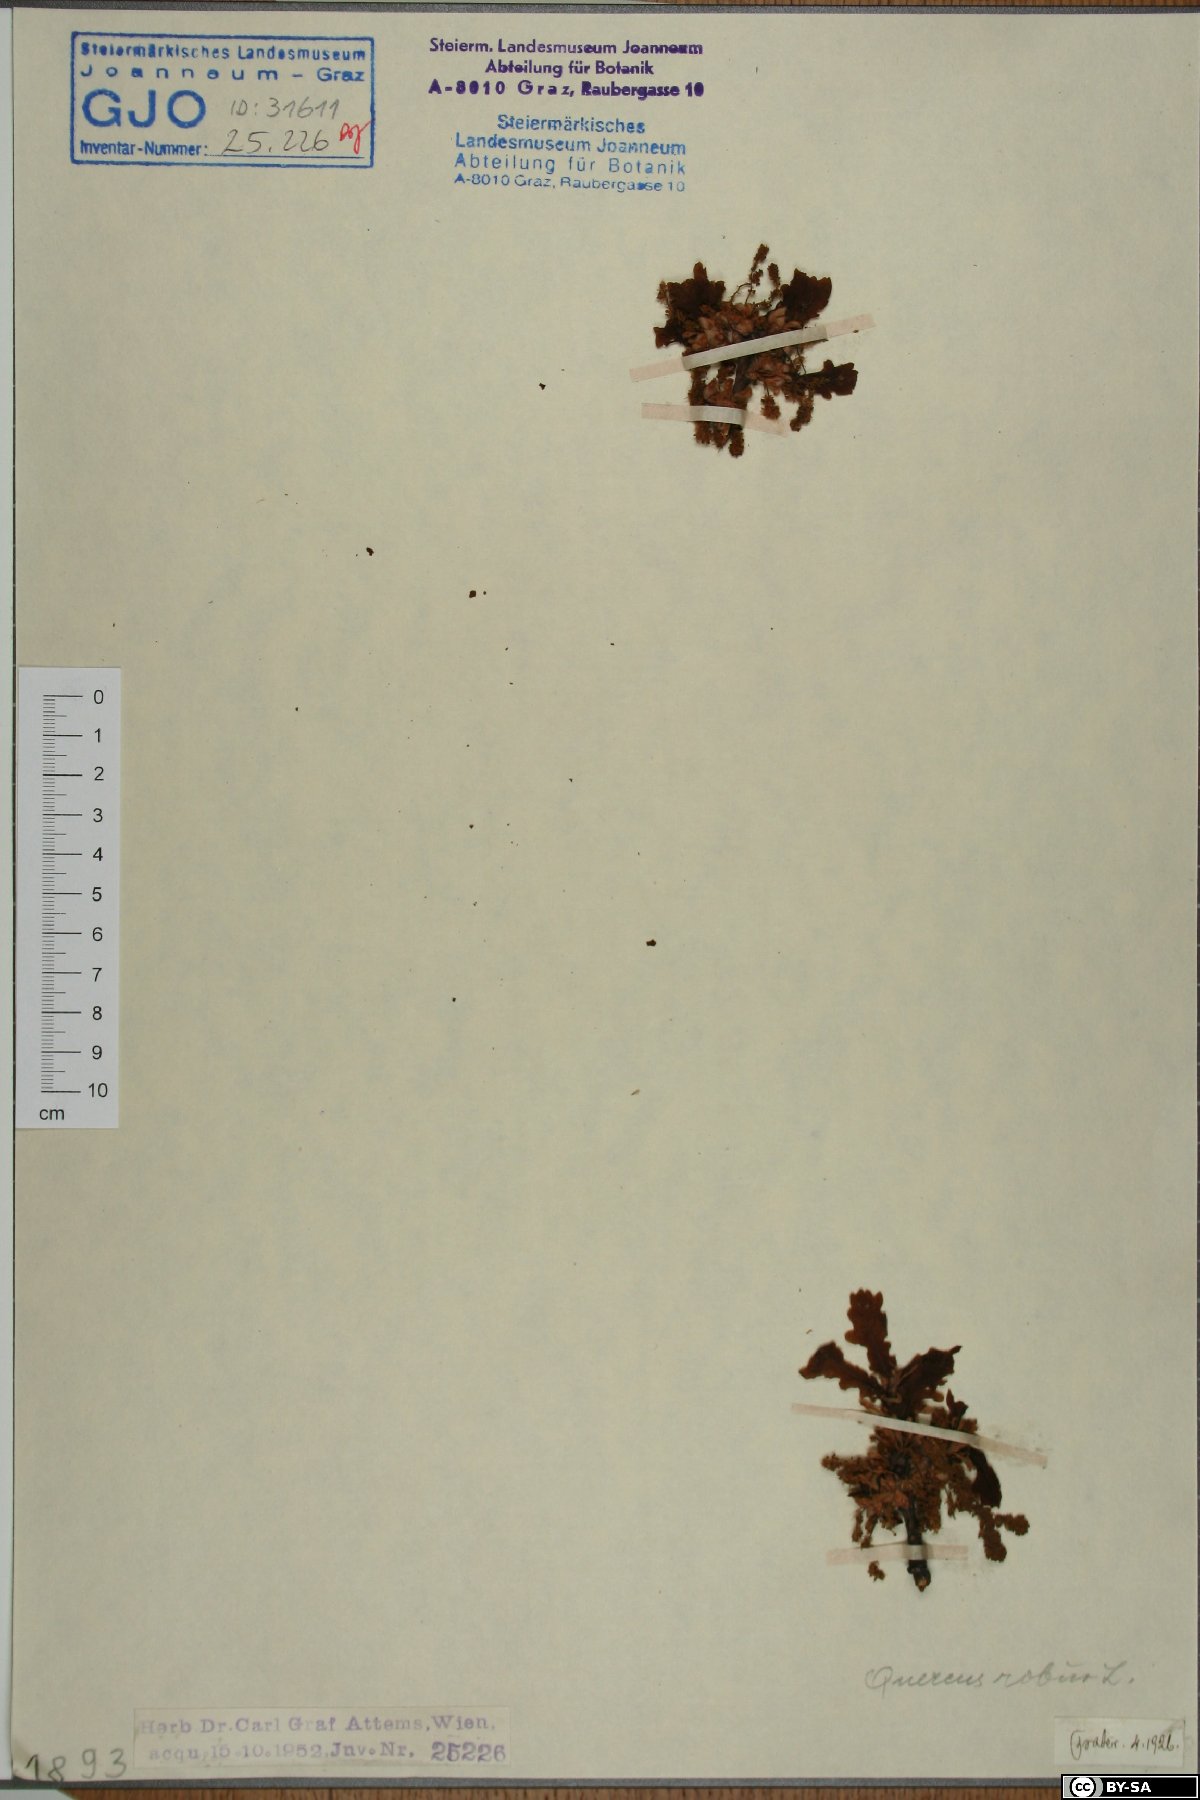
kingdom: Plantae
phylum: Tracheophyta
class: Magnoliopsida
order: Fagales
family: Fagaceae
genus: Quercus
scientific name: Quercus robur
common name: Pedunculate oak
